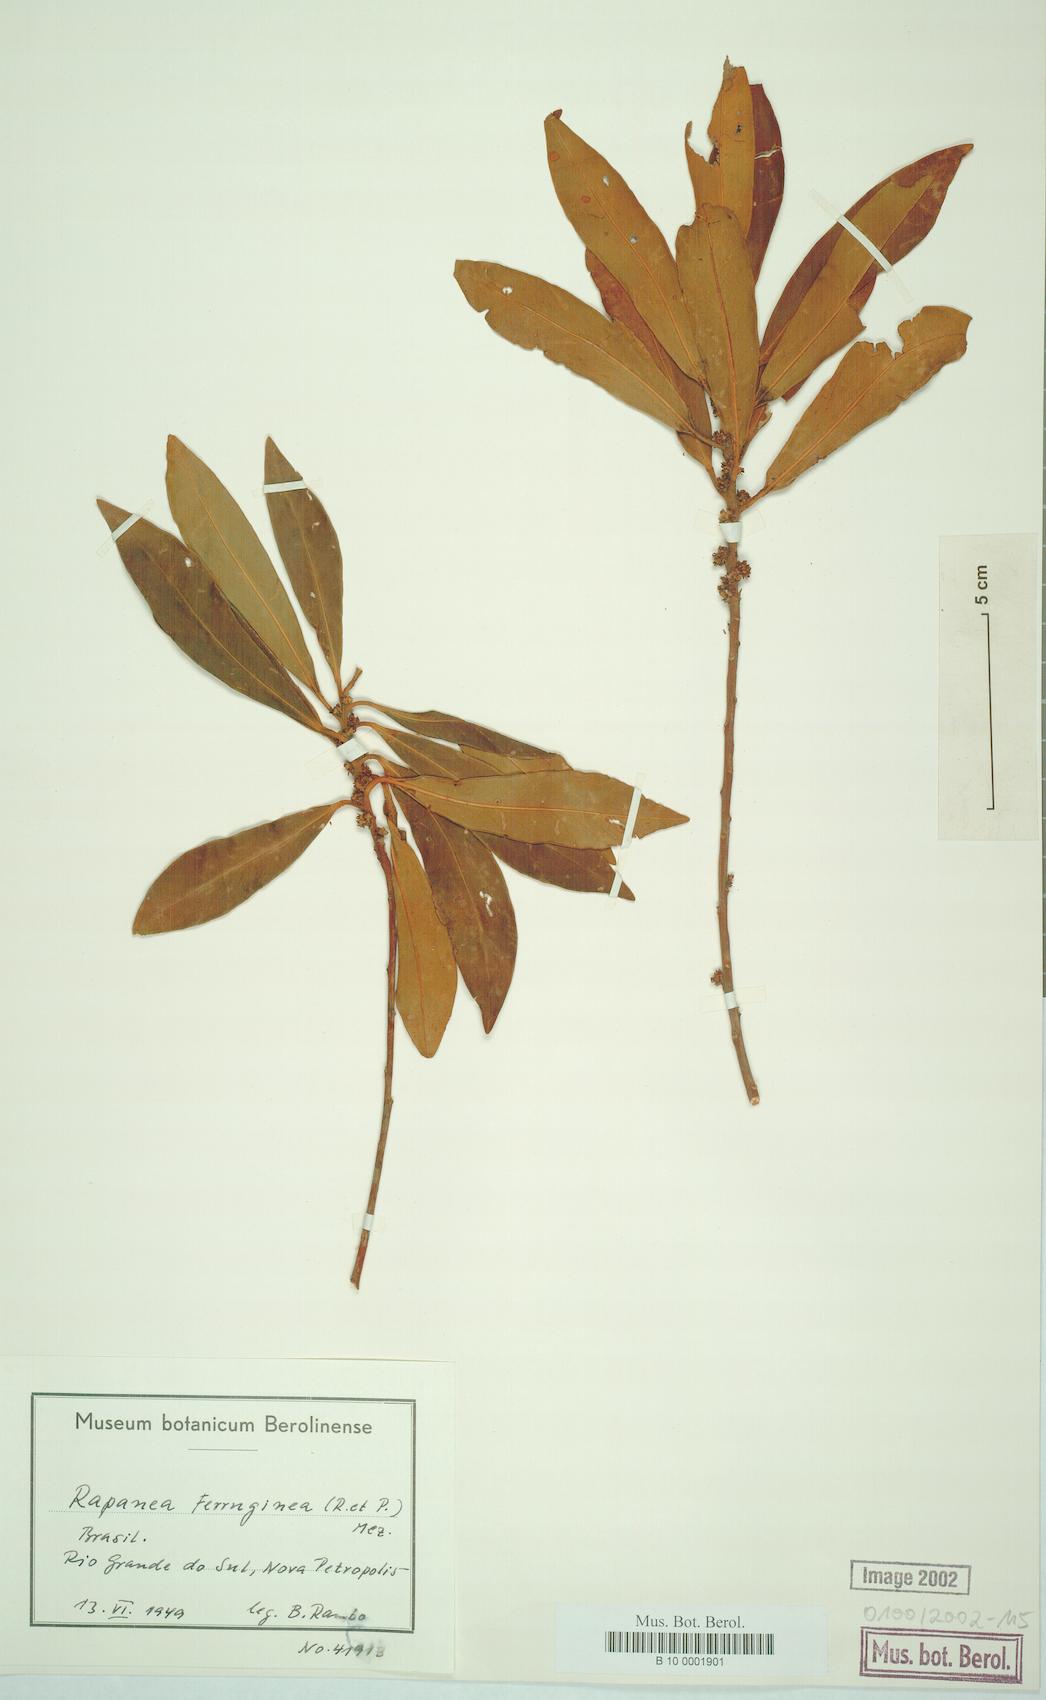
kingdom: Plantae
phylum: Tracheophyta
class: Magnoliopsida
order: Ericales
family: Primulaceae
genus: Myrsine
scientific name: Myrsine coriacea
